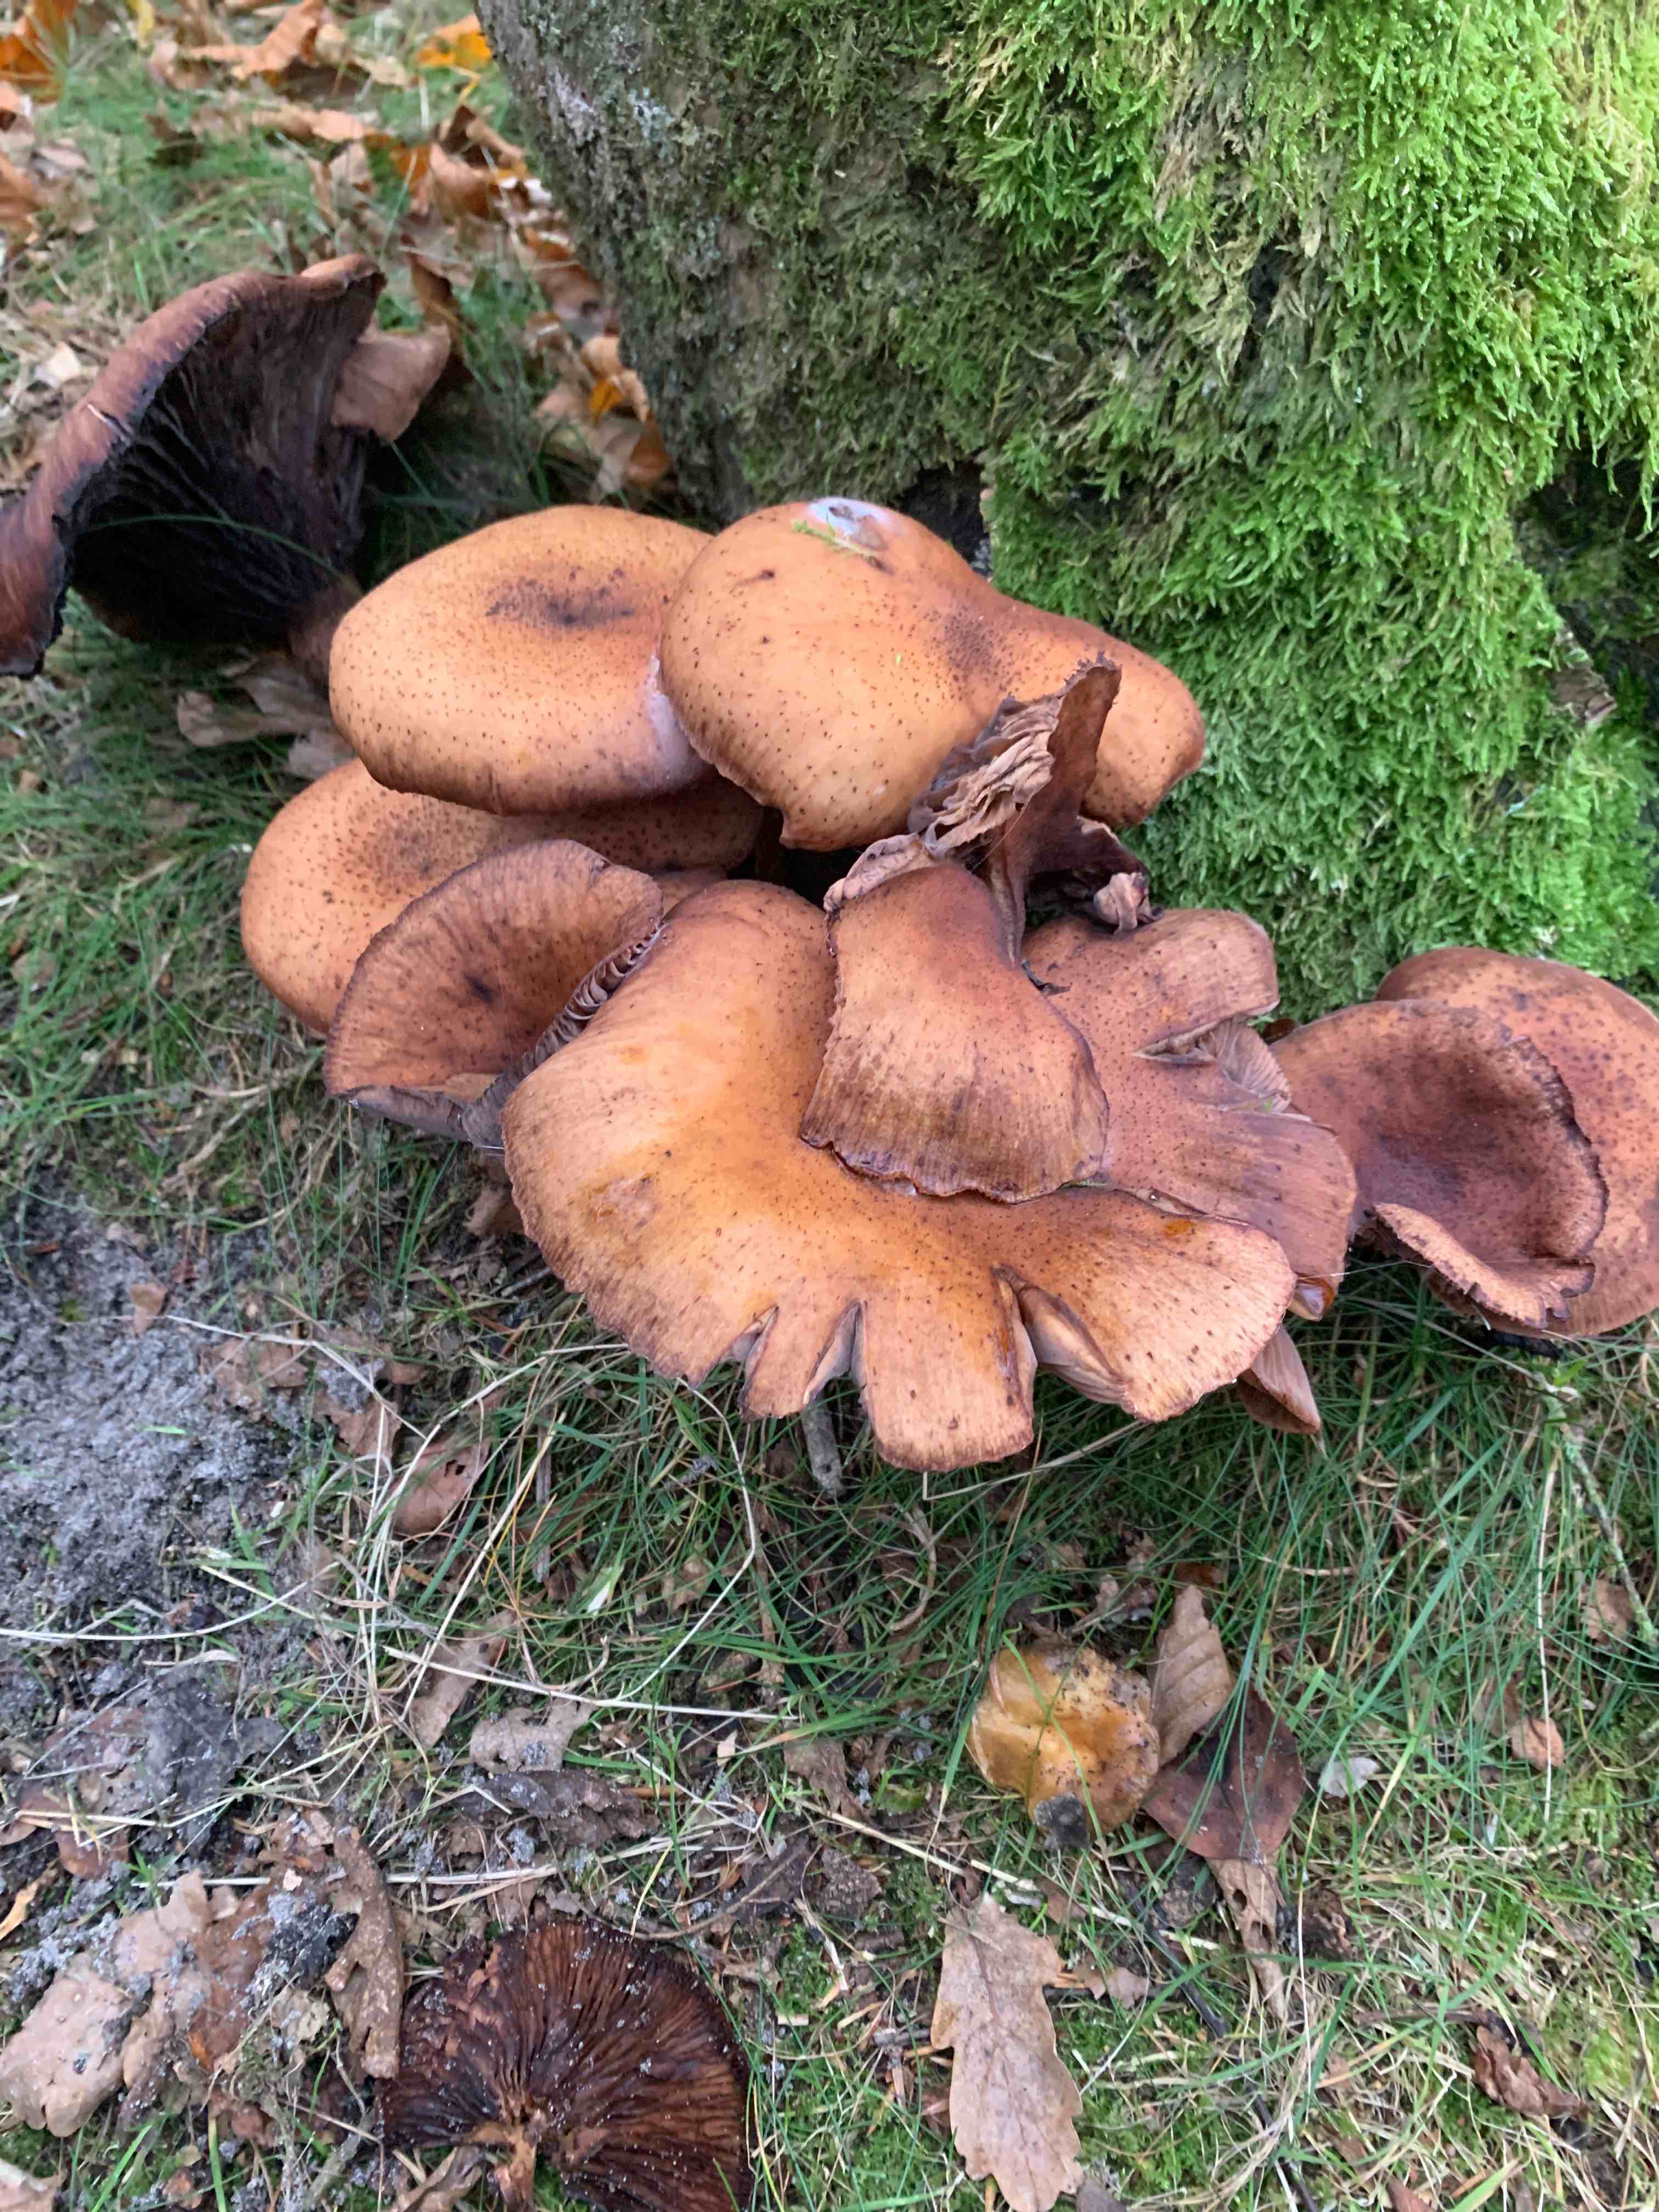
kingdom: Fungi
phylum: Basidiomycota
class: Agaricomycetes
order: Agaricales
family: Physalacriaceae
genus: Armillaria
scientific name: Armillaria
